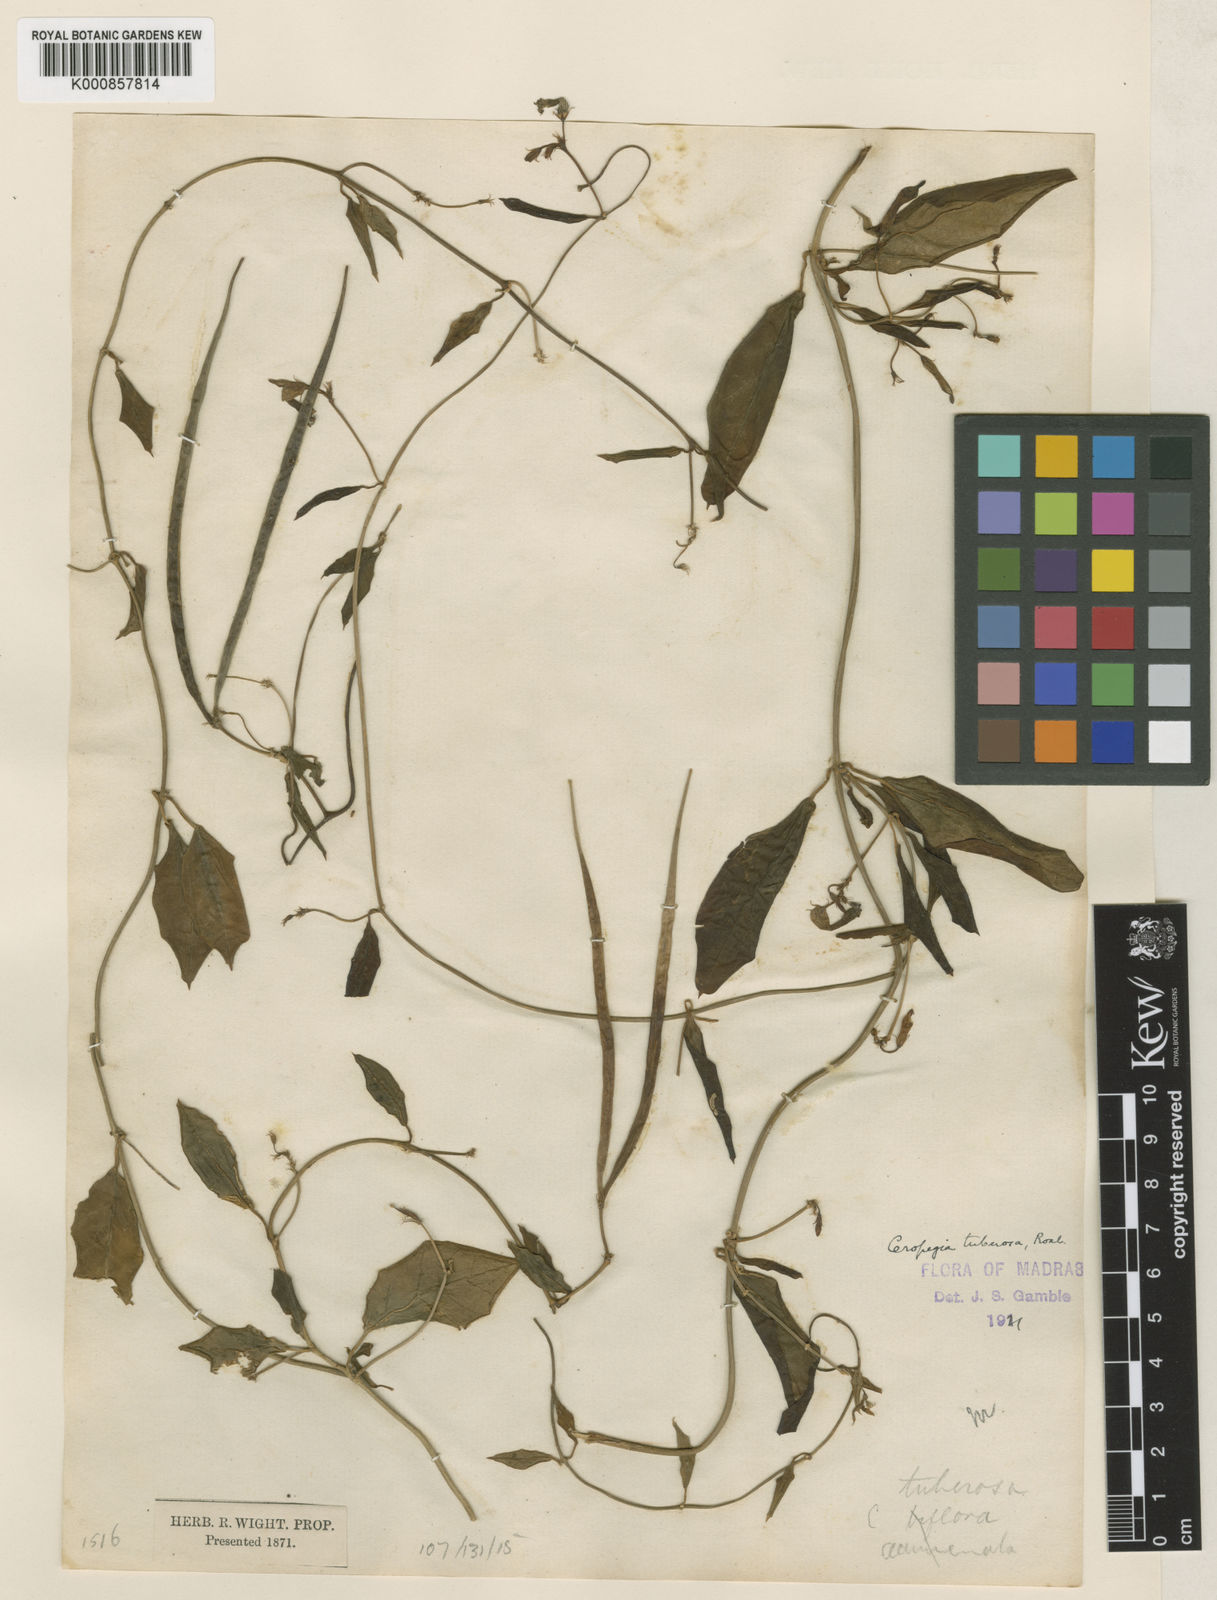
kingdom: Plantae
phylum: Tracheophyta
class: Magnoliopsida
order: Gentianales
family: Apocynaceae
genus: Ceropegia
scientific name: Ceropegia candelabrum
